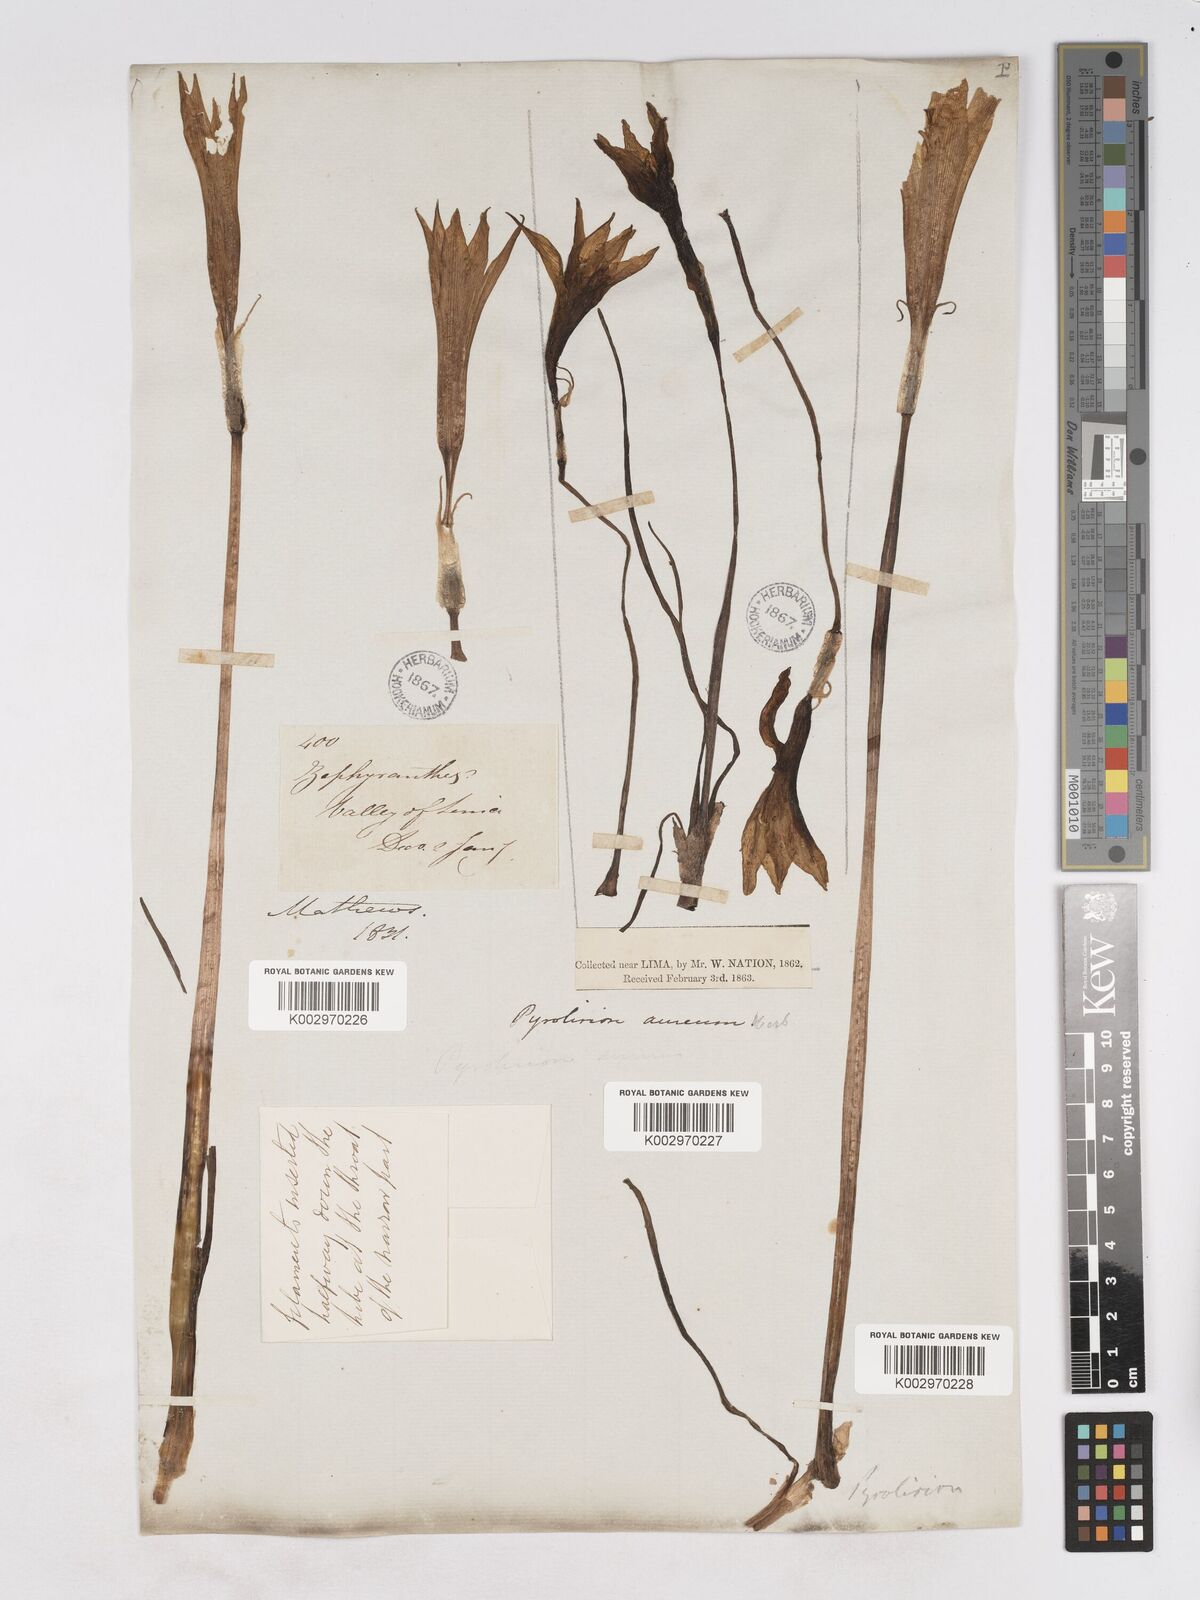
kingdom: Plantae
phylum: Tracheophyta
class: Liliopsida
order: Asparagales
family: Amaryllidaceae
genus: Pyrolirion
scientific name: Pyrolirion tubiflorum
